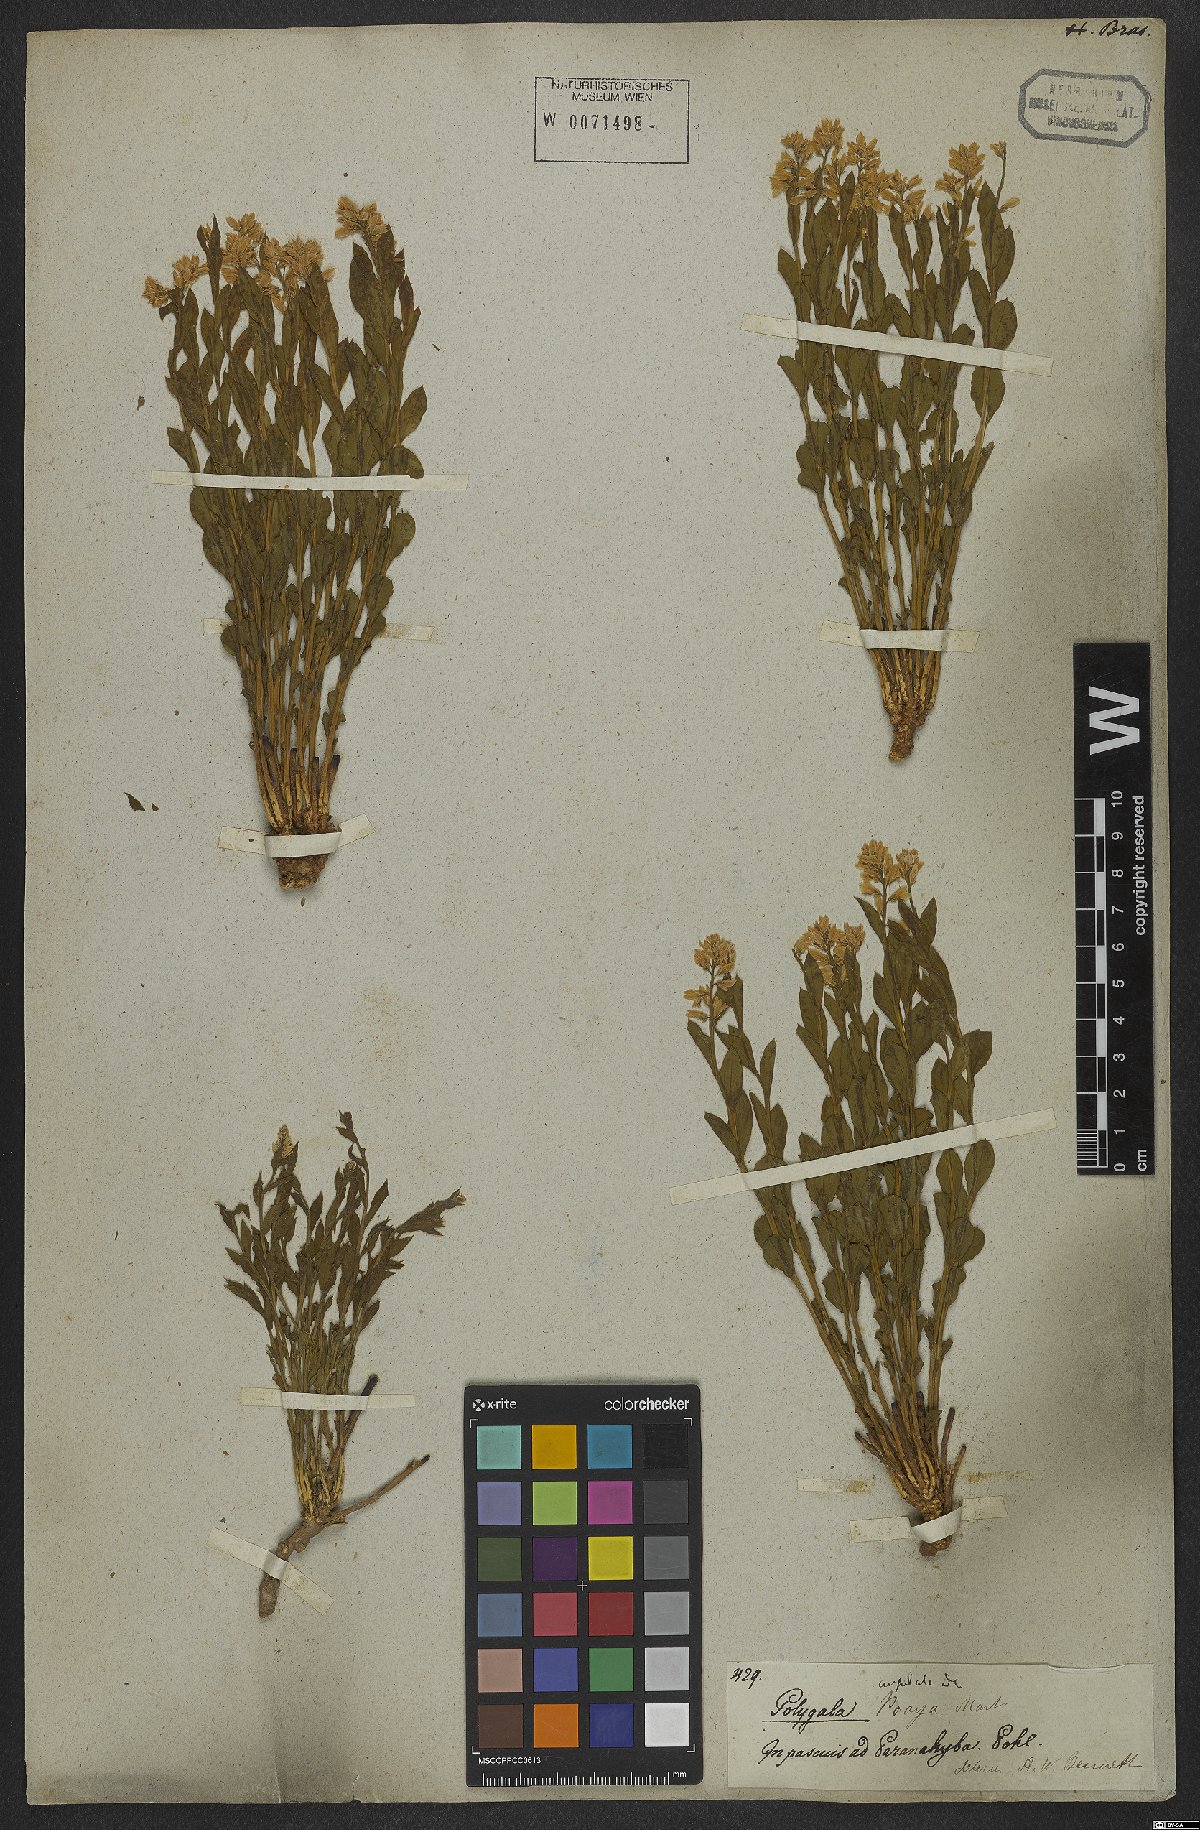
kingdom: Plantae
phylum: Tracheophyta
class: Magnoliopsida
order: Fabales
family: Polygalaceae
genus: Polygala
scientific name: Polygala poaya
